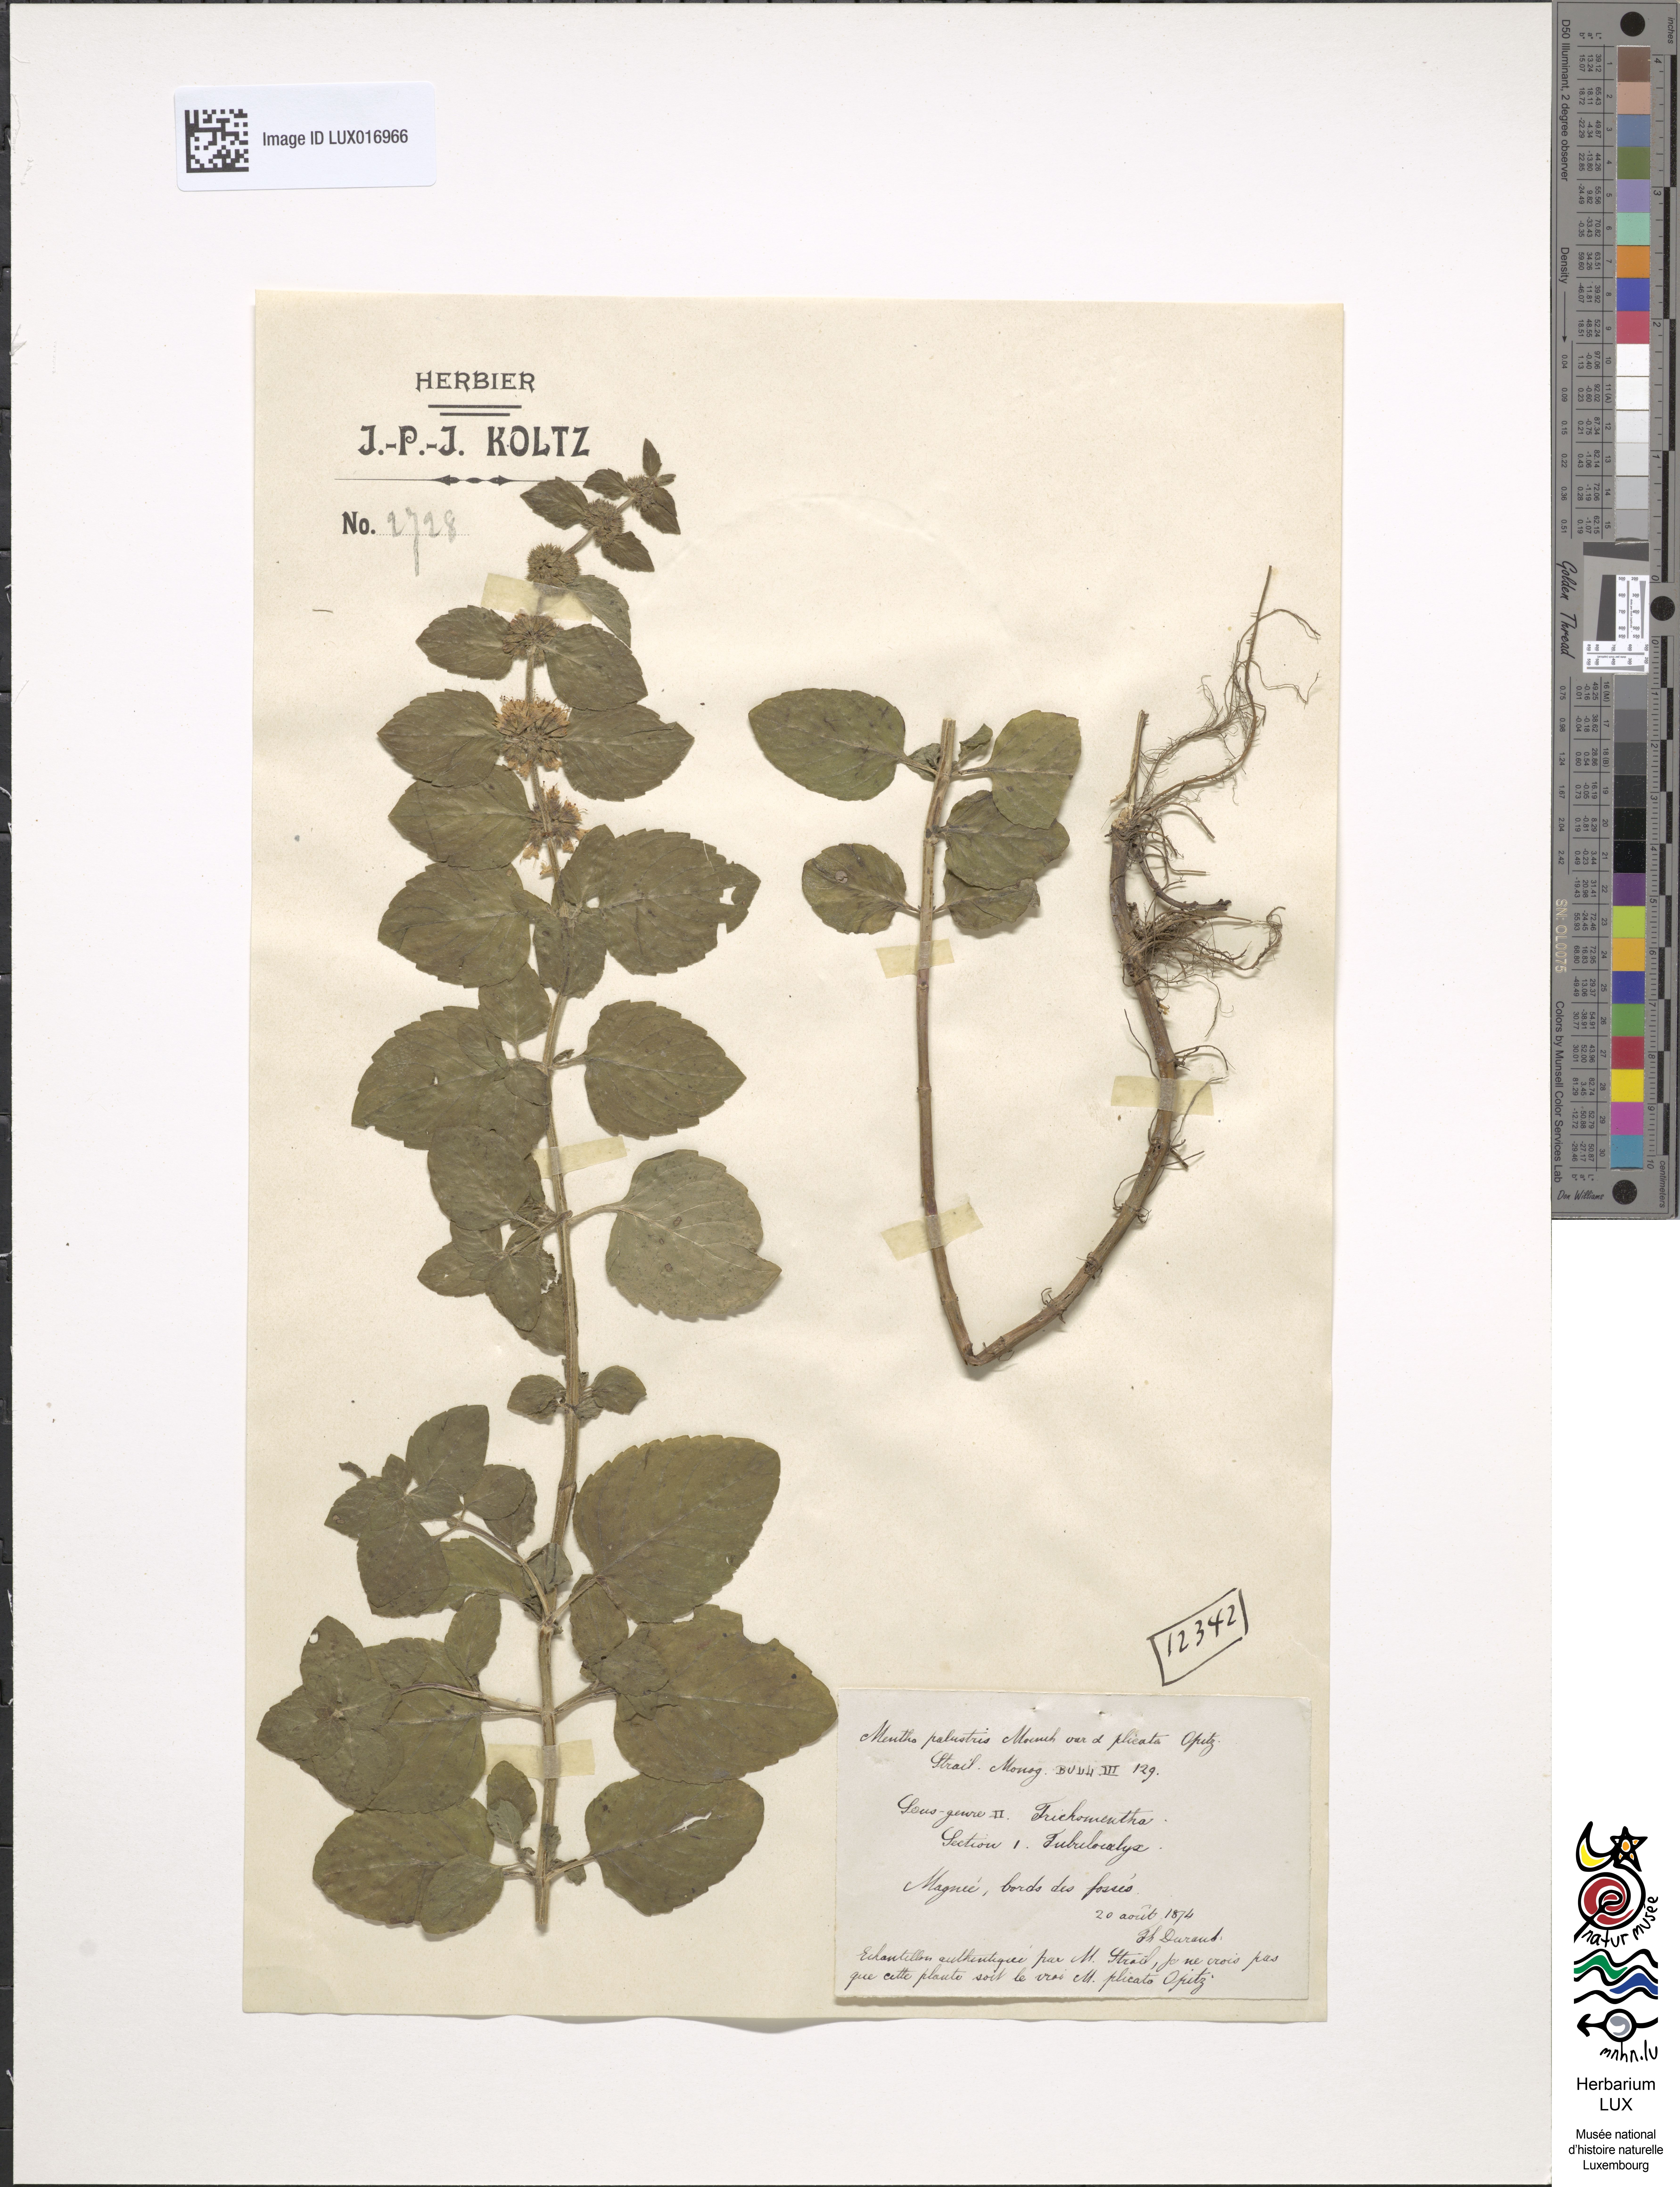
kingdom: Plantae
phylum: Tracheophyta
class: Magnoliopsida
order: Lamiales
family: Lamiaceae
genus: Mentha
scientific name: Mentha verticillata
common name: Mint
